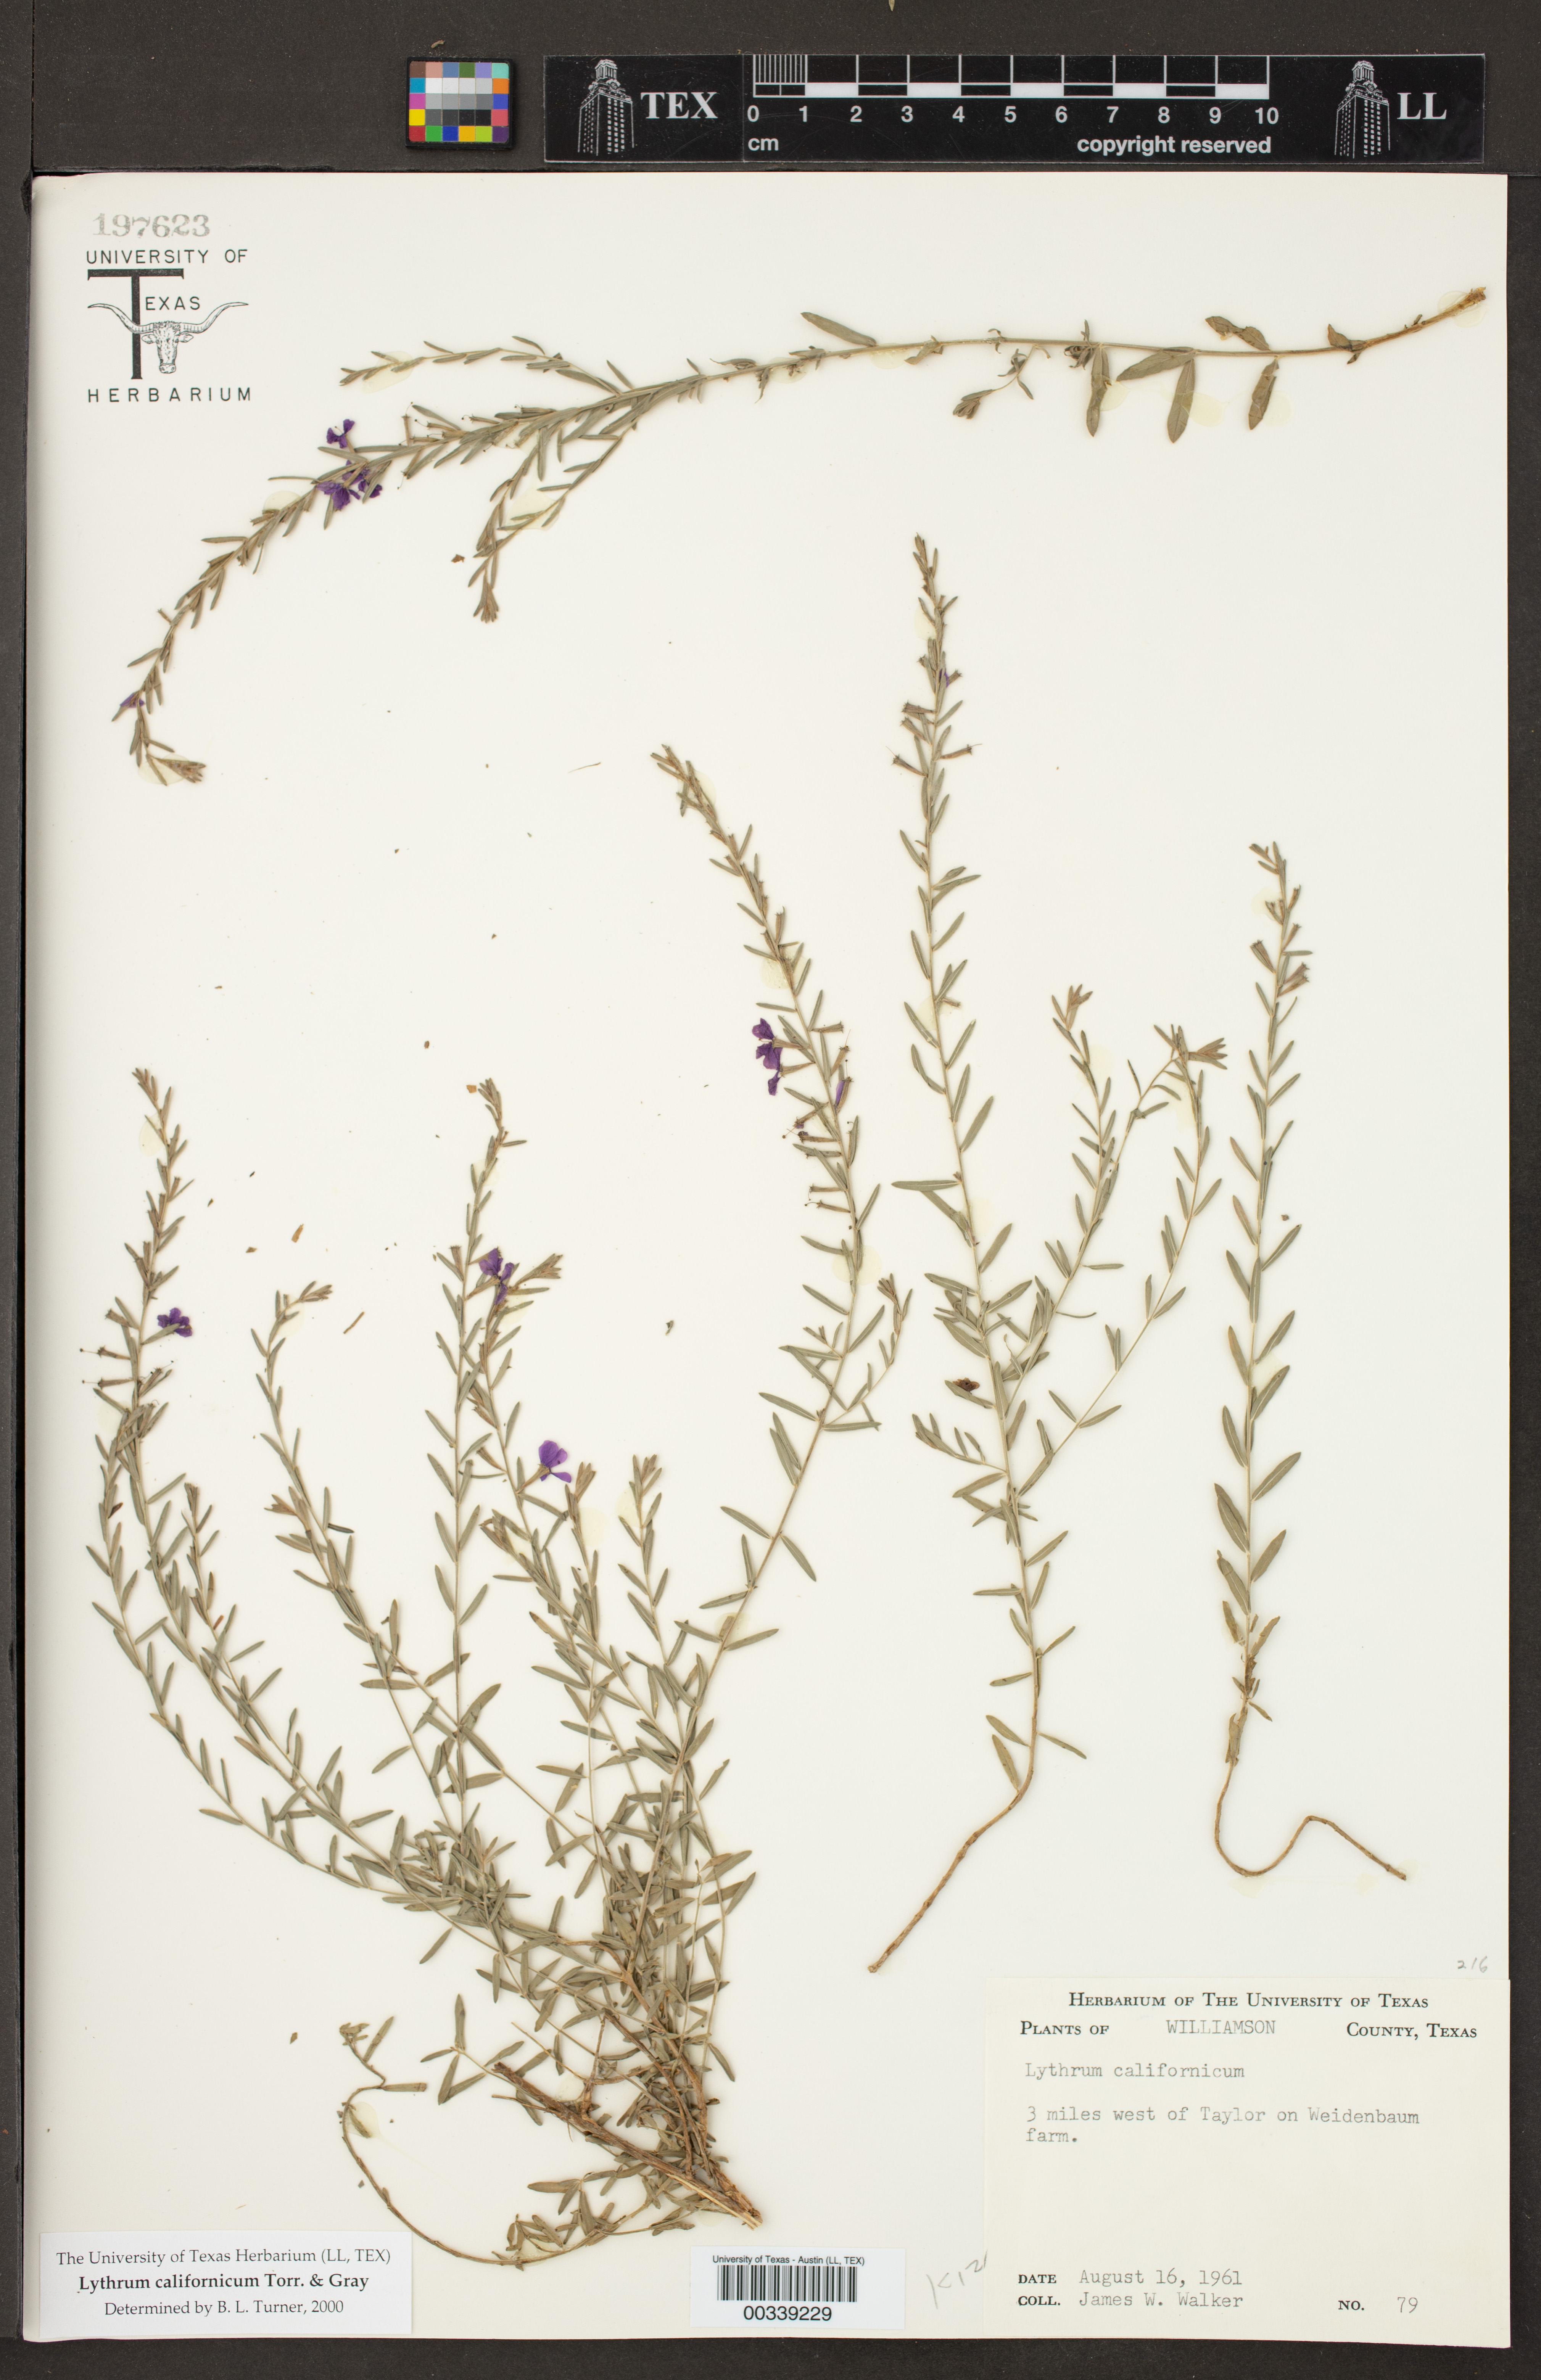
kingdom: Plantae
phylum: Tracheophyta
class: Magnoliopsida
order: Myrtales
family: Lythraceae
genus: Lythrum
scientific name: Lythrum californicum
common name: California loosestrife
